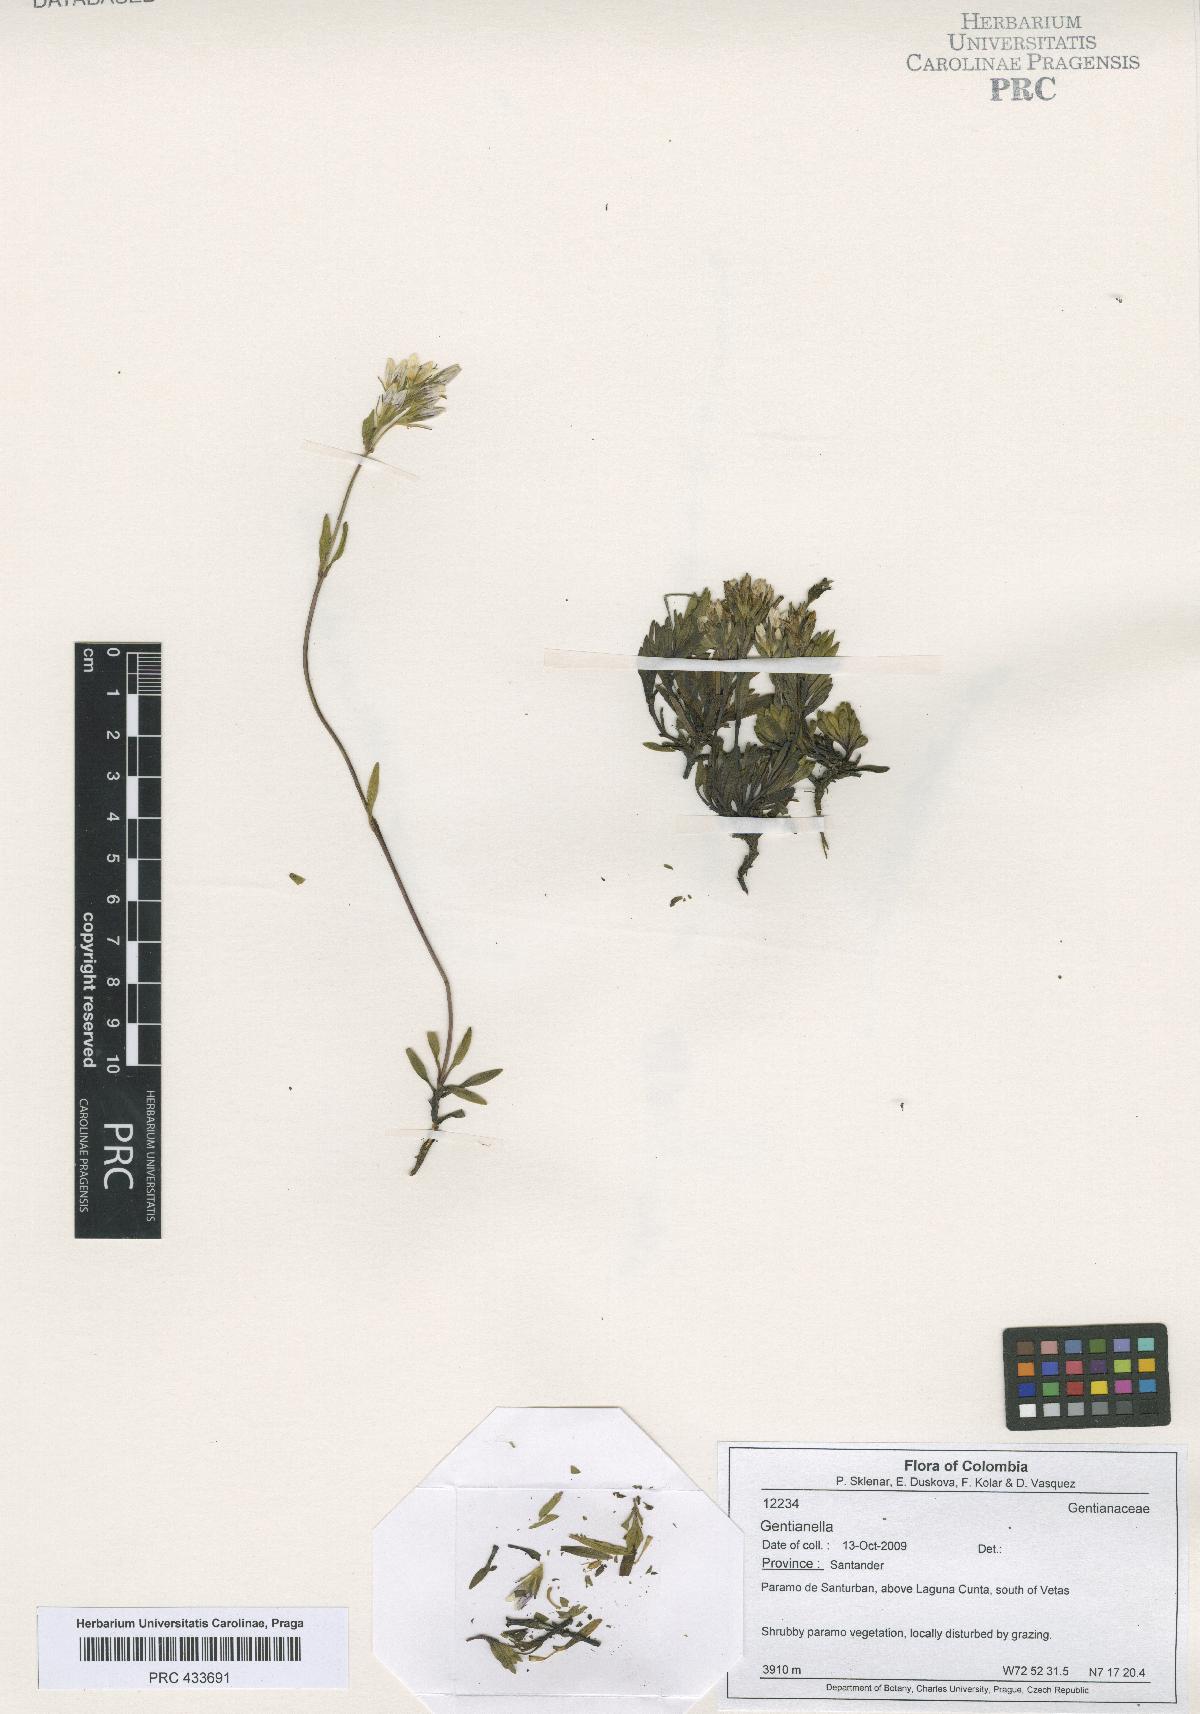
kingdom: Plantae
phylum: Tracheophyta
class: Magnoliopsida
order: Gentianales
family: Gentianaceae
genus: Gentianella
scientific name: Gentianella
